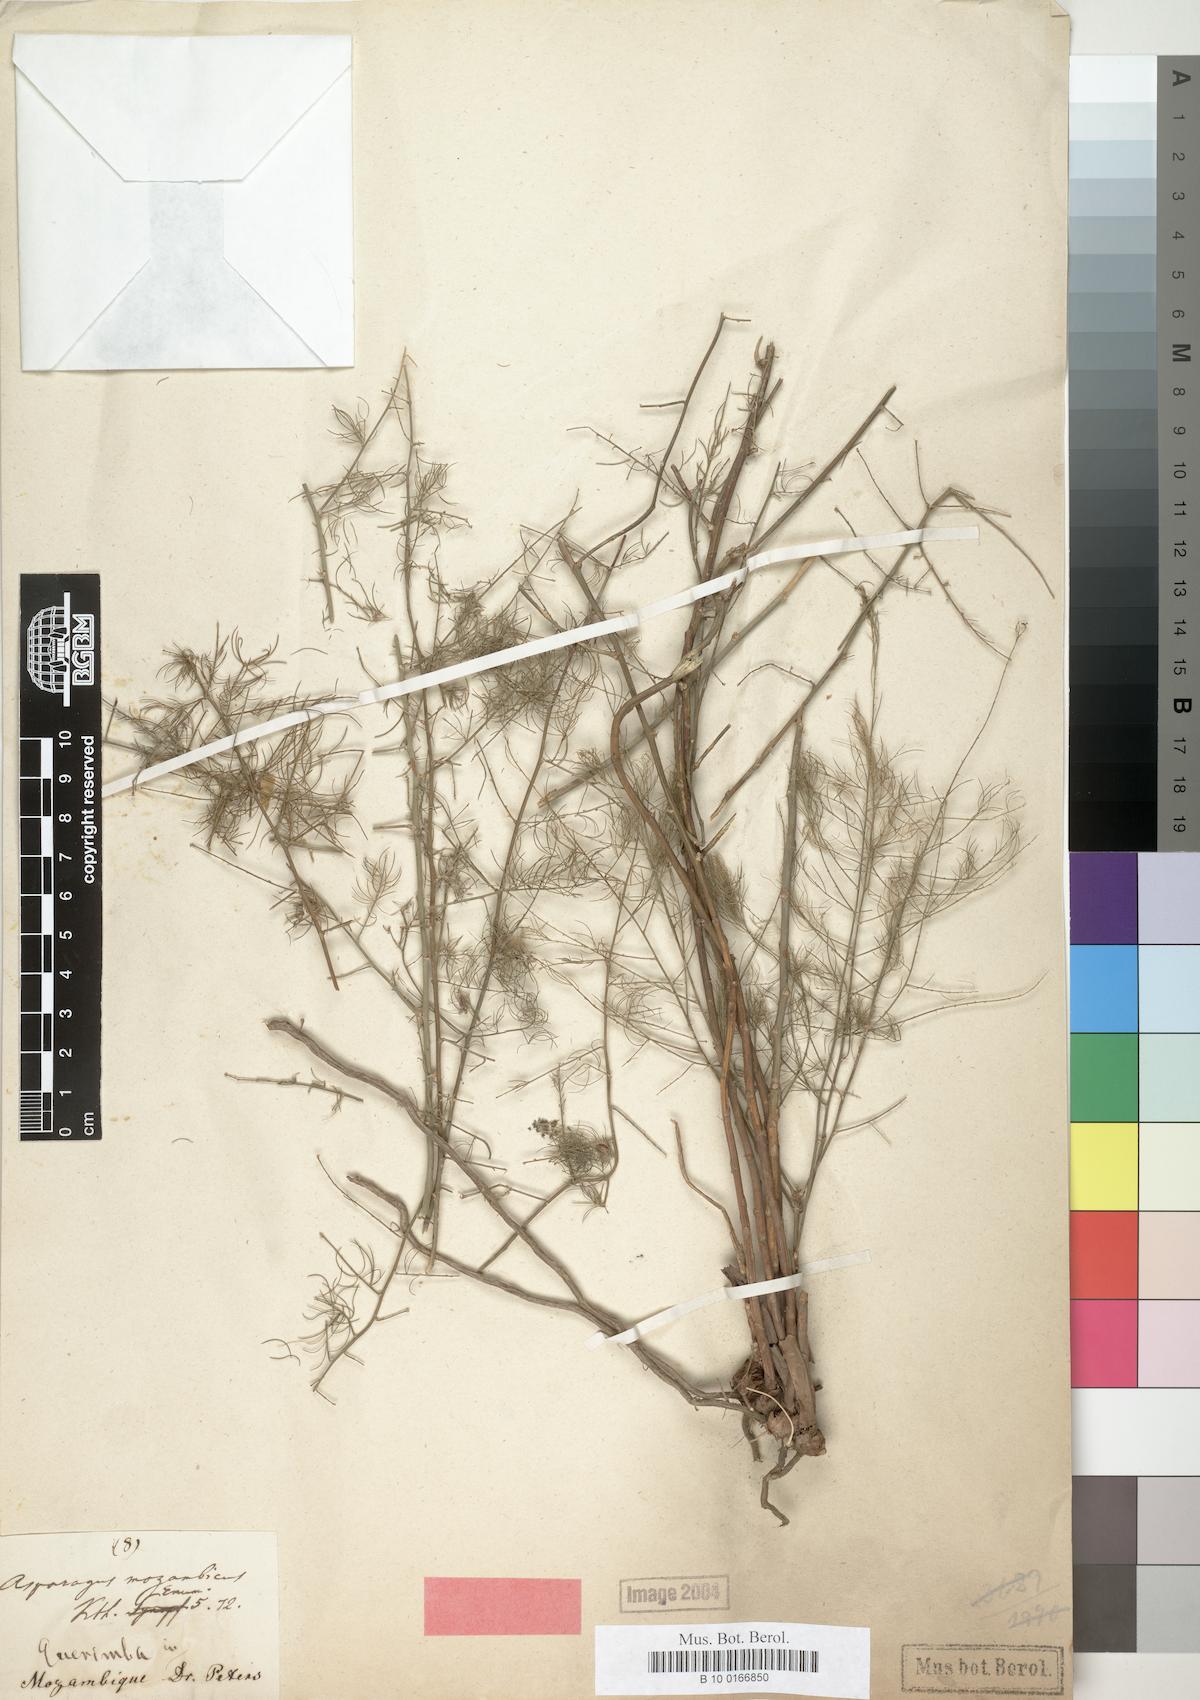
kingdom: Plantae
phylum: Tracheophyta
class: Liliopsida
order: Asparagales
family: Asparagaceae
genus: Asparagus
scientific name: Asparagus mozambicus
